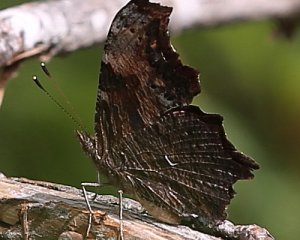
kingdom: Animalia
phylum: Arthropoda
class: Insecta
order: Lepidoptera
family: Nymphalidae
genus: Polygonia
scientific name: Polygonia progne
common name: Gray Comma
